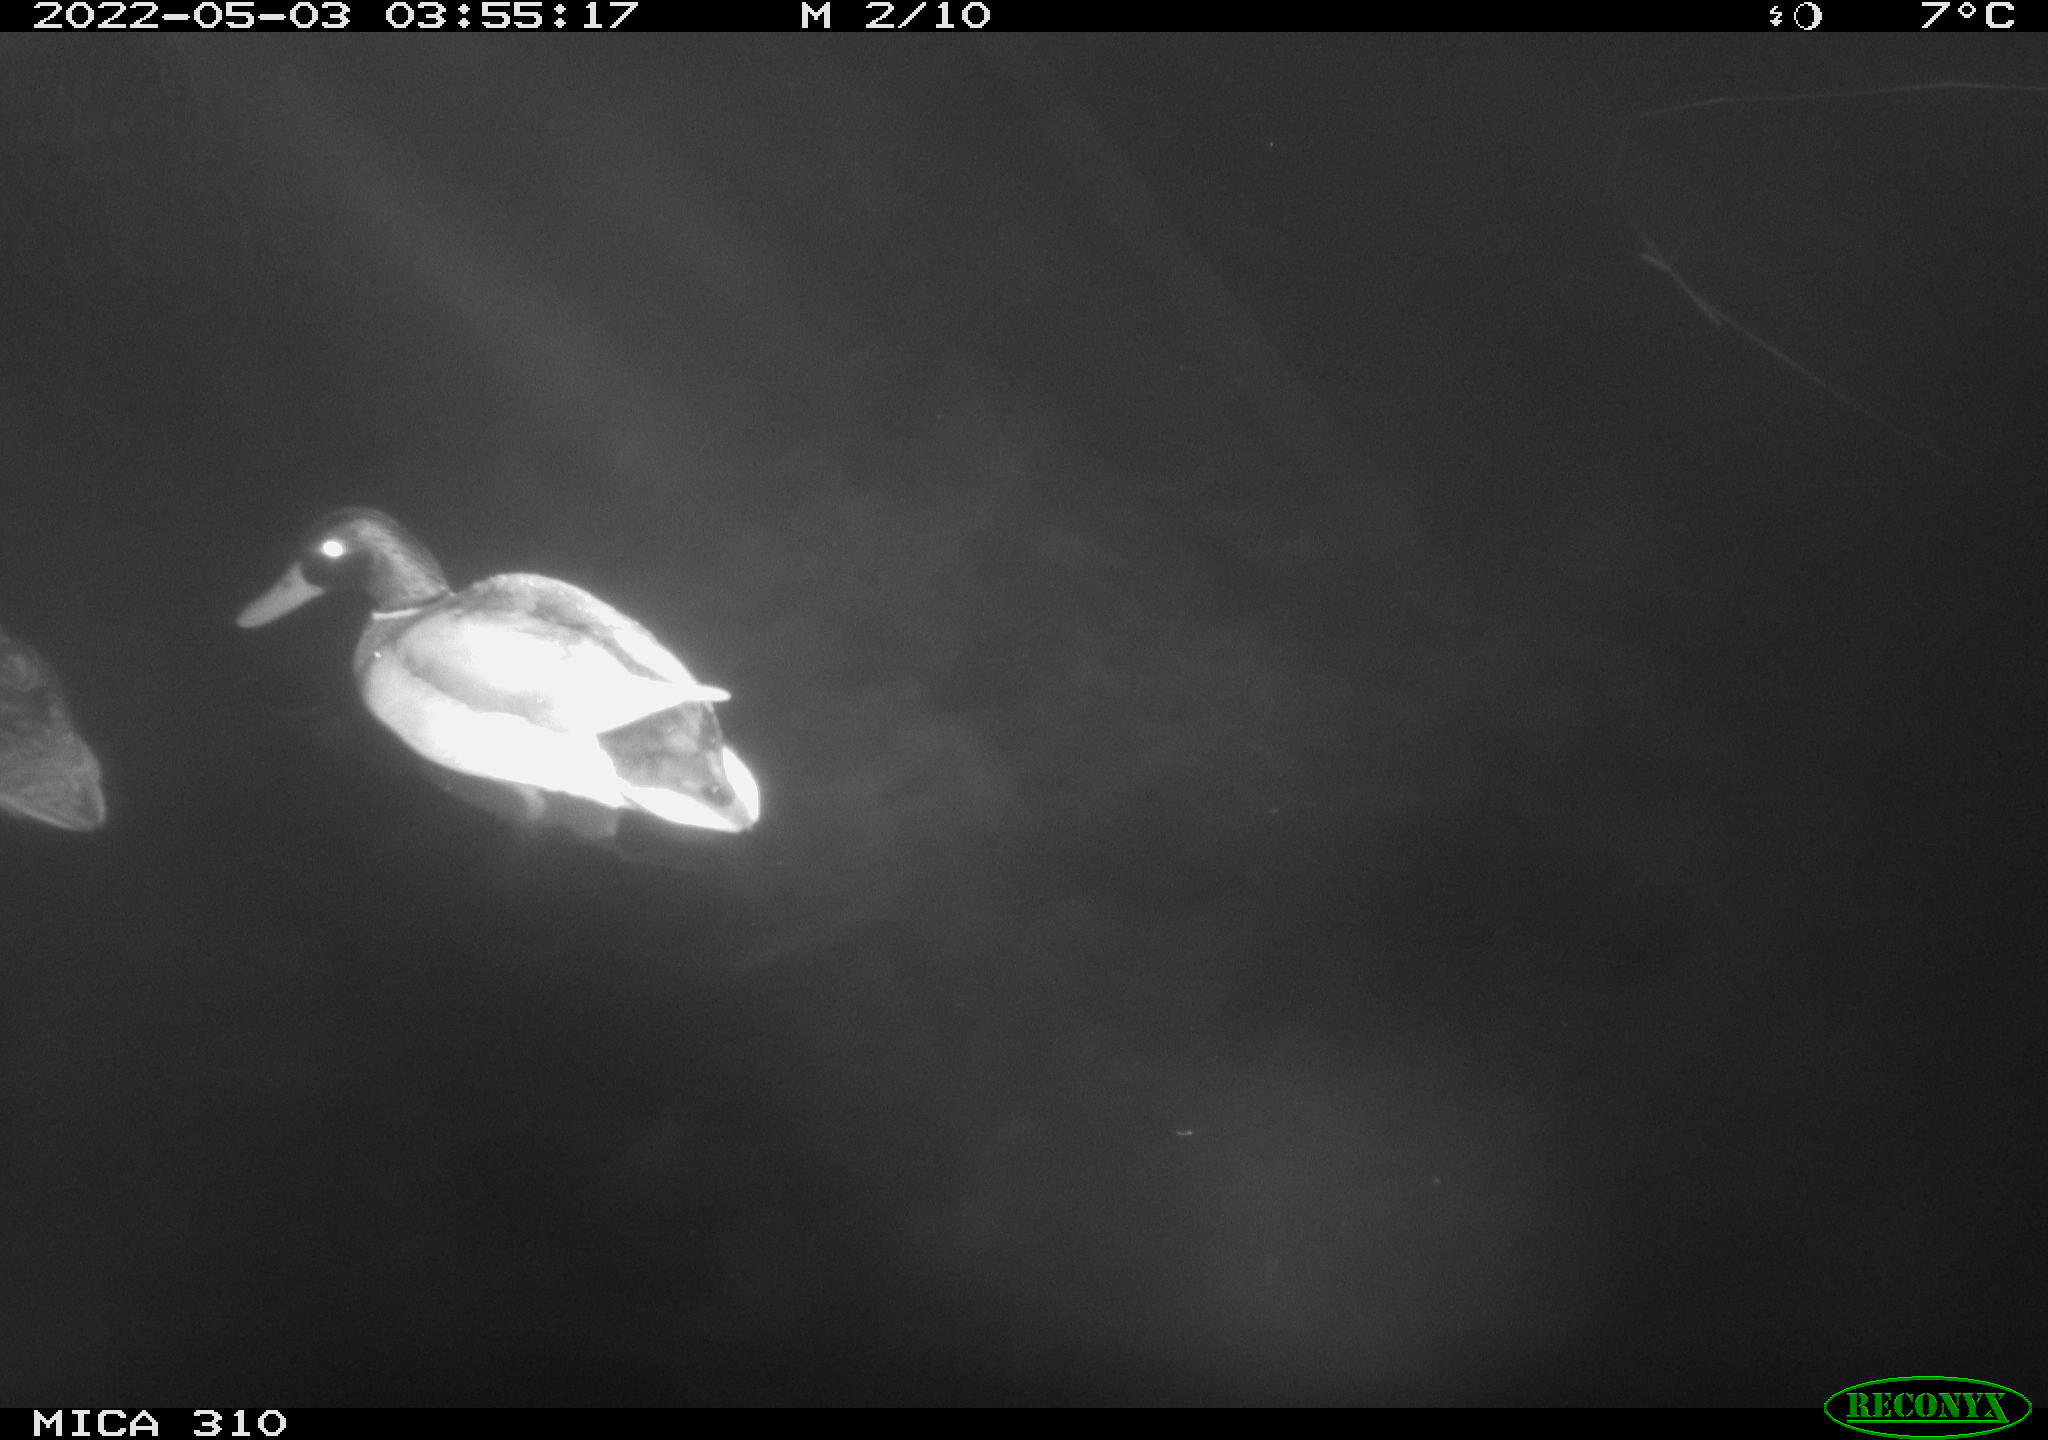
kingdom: Animalia
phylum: Chordata
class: Aves
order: Anseriformes
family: Anatidae
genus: Anas
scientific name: Anas platyrhynchos
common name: Mallard
